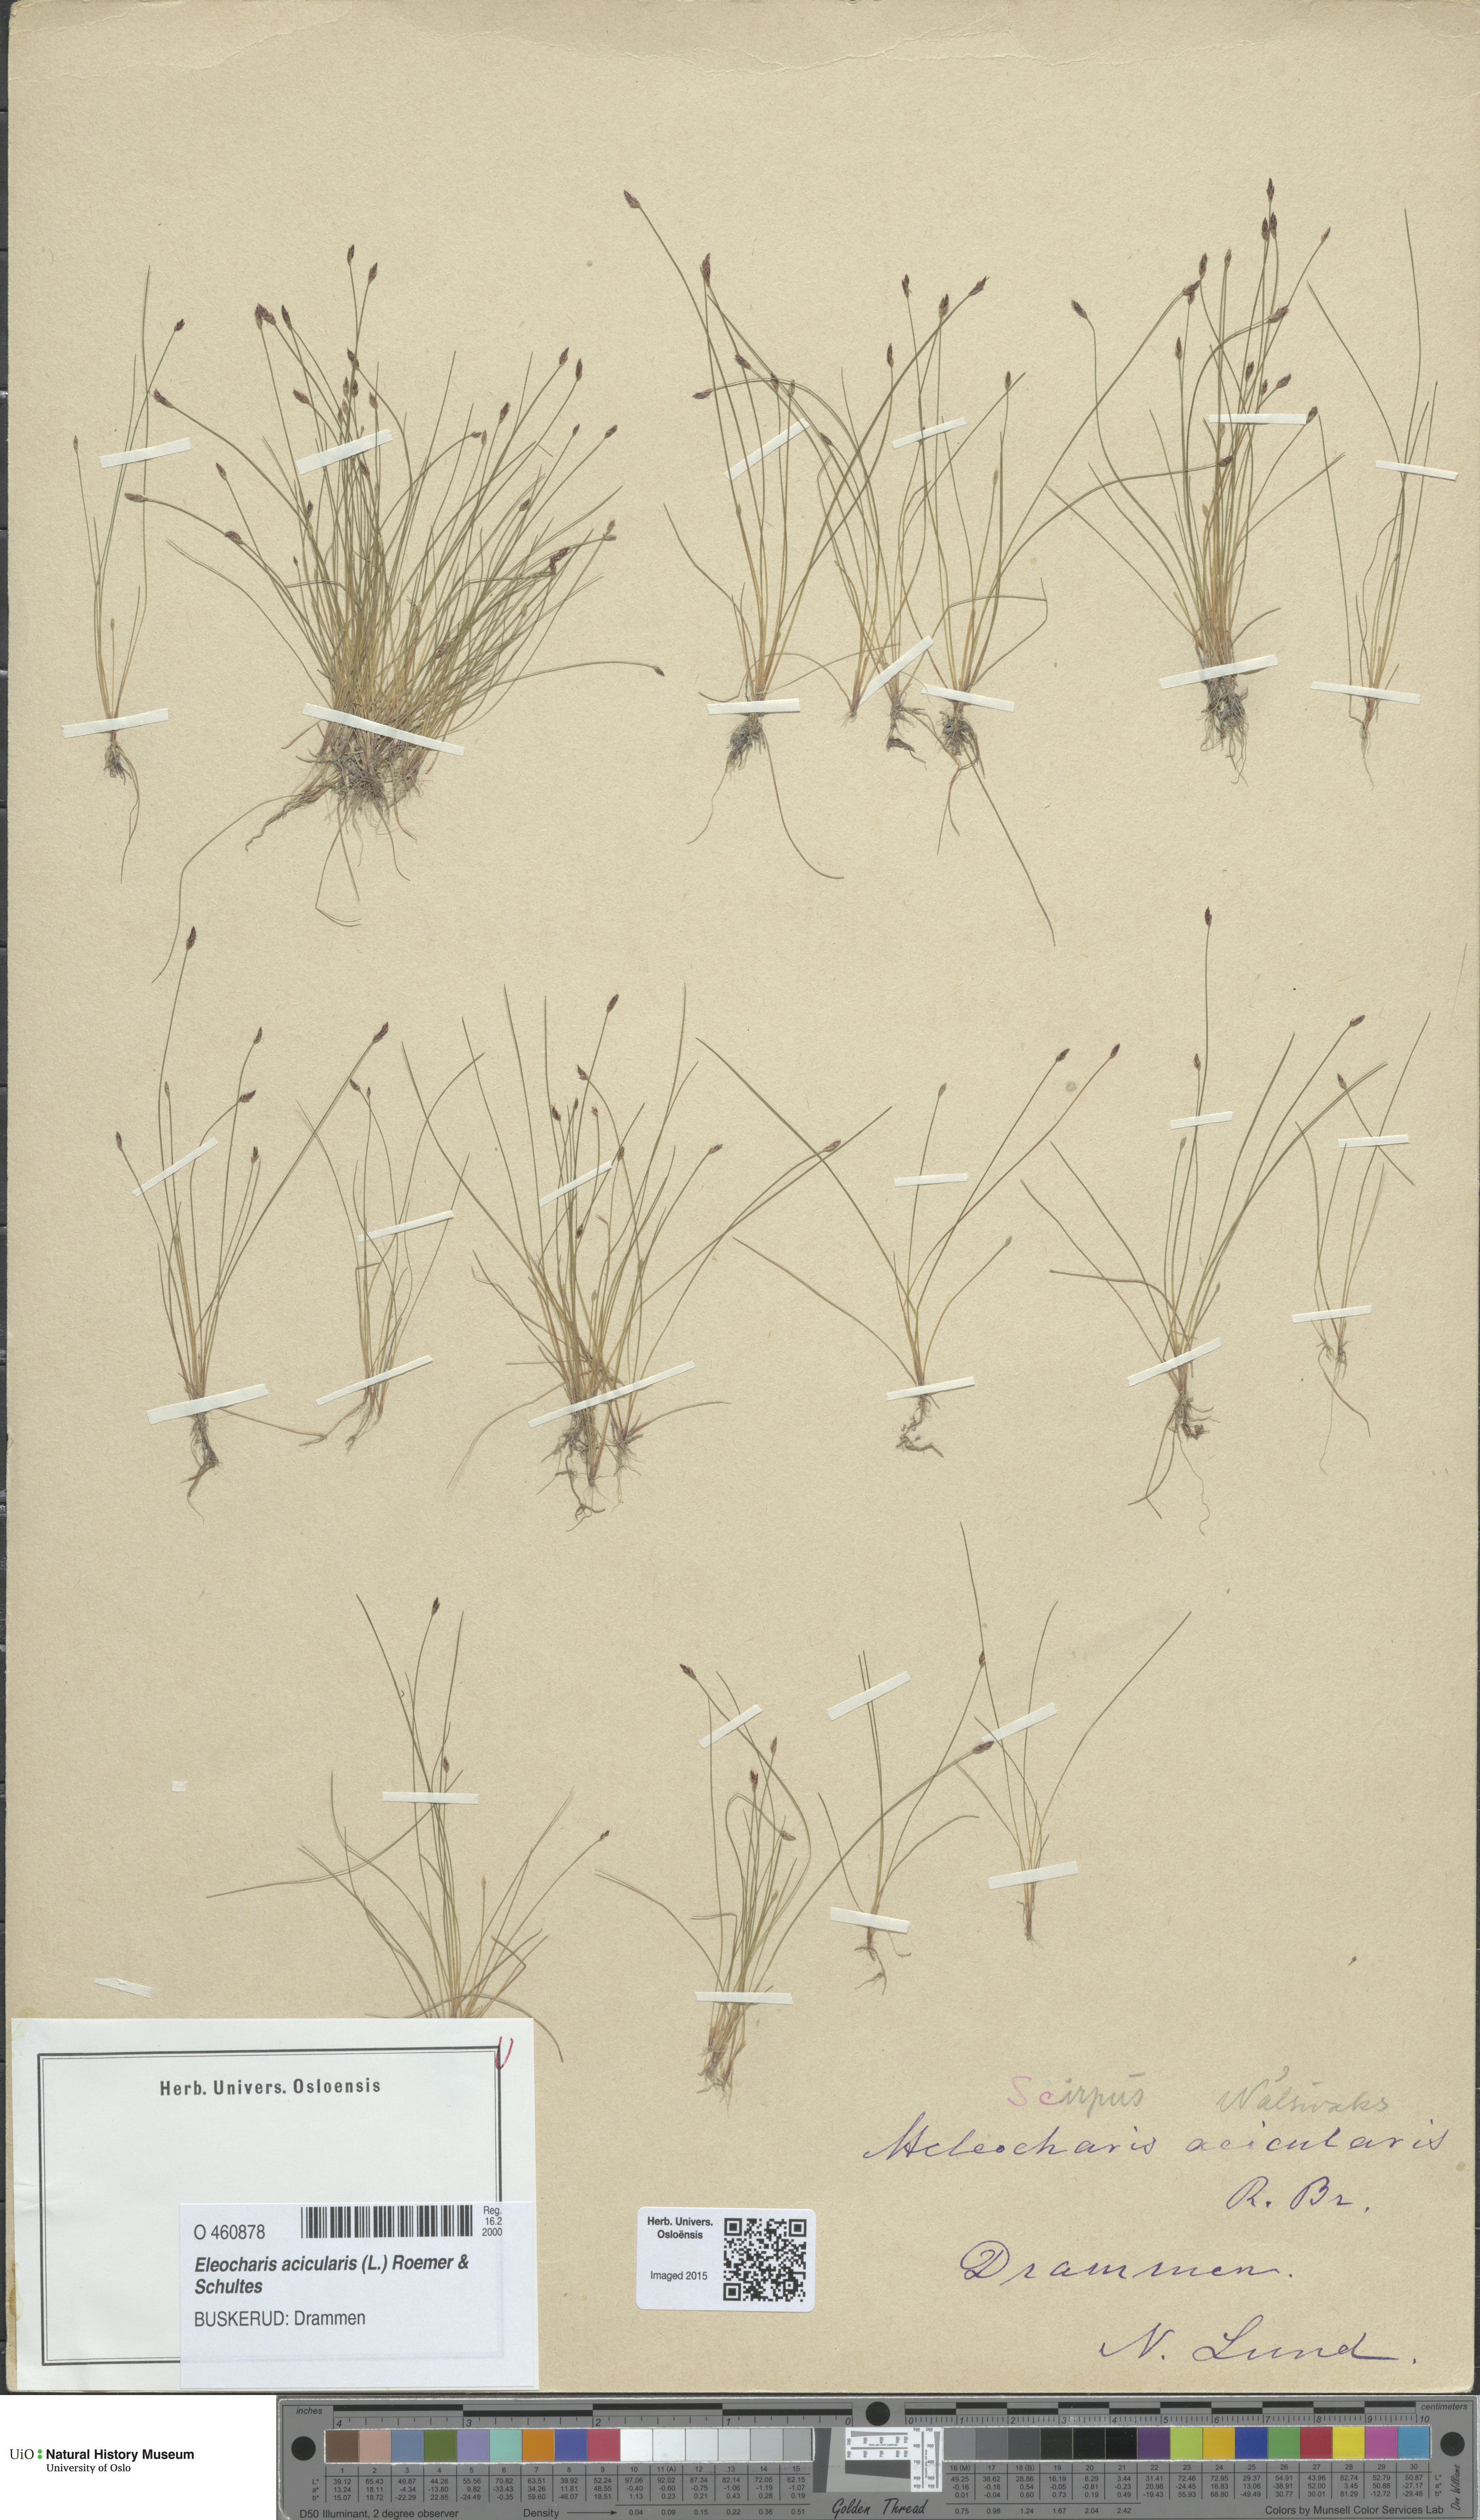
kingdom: Plantae
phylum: Tracheophyta
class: Liliopsida
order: Poales
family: Cyperaceae
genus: Eleocharis
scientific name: Eleocharis acicularis
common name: Needle spike-rush
